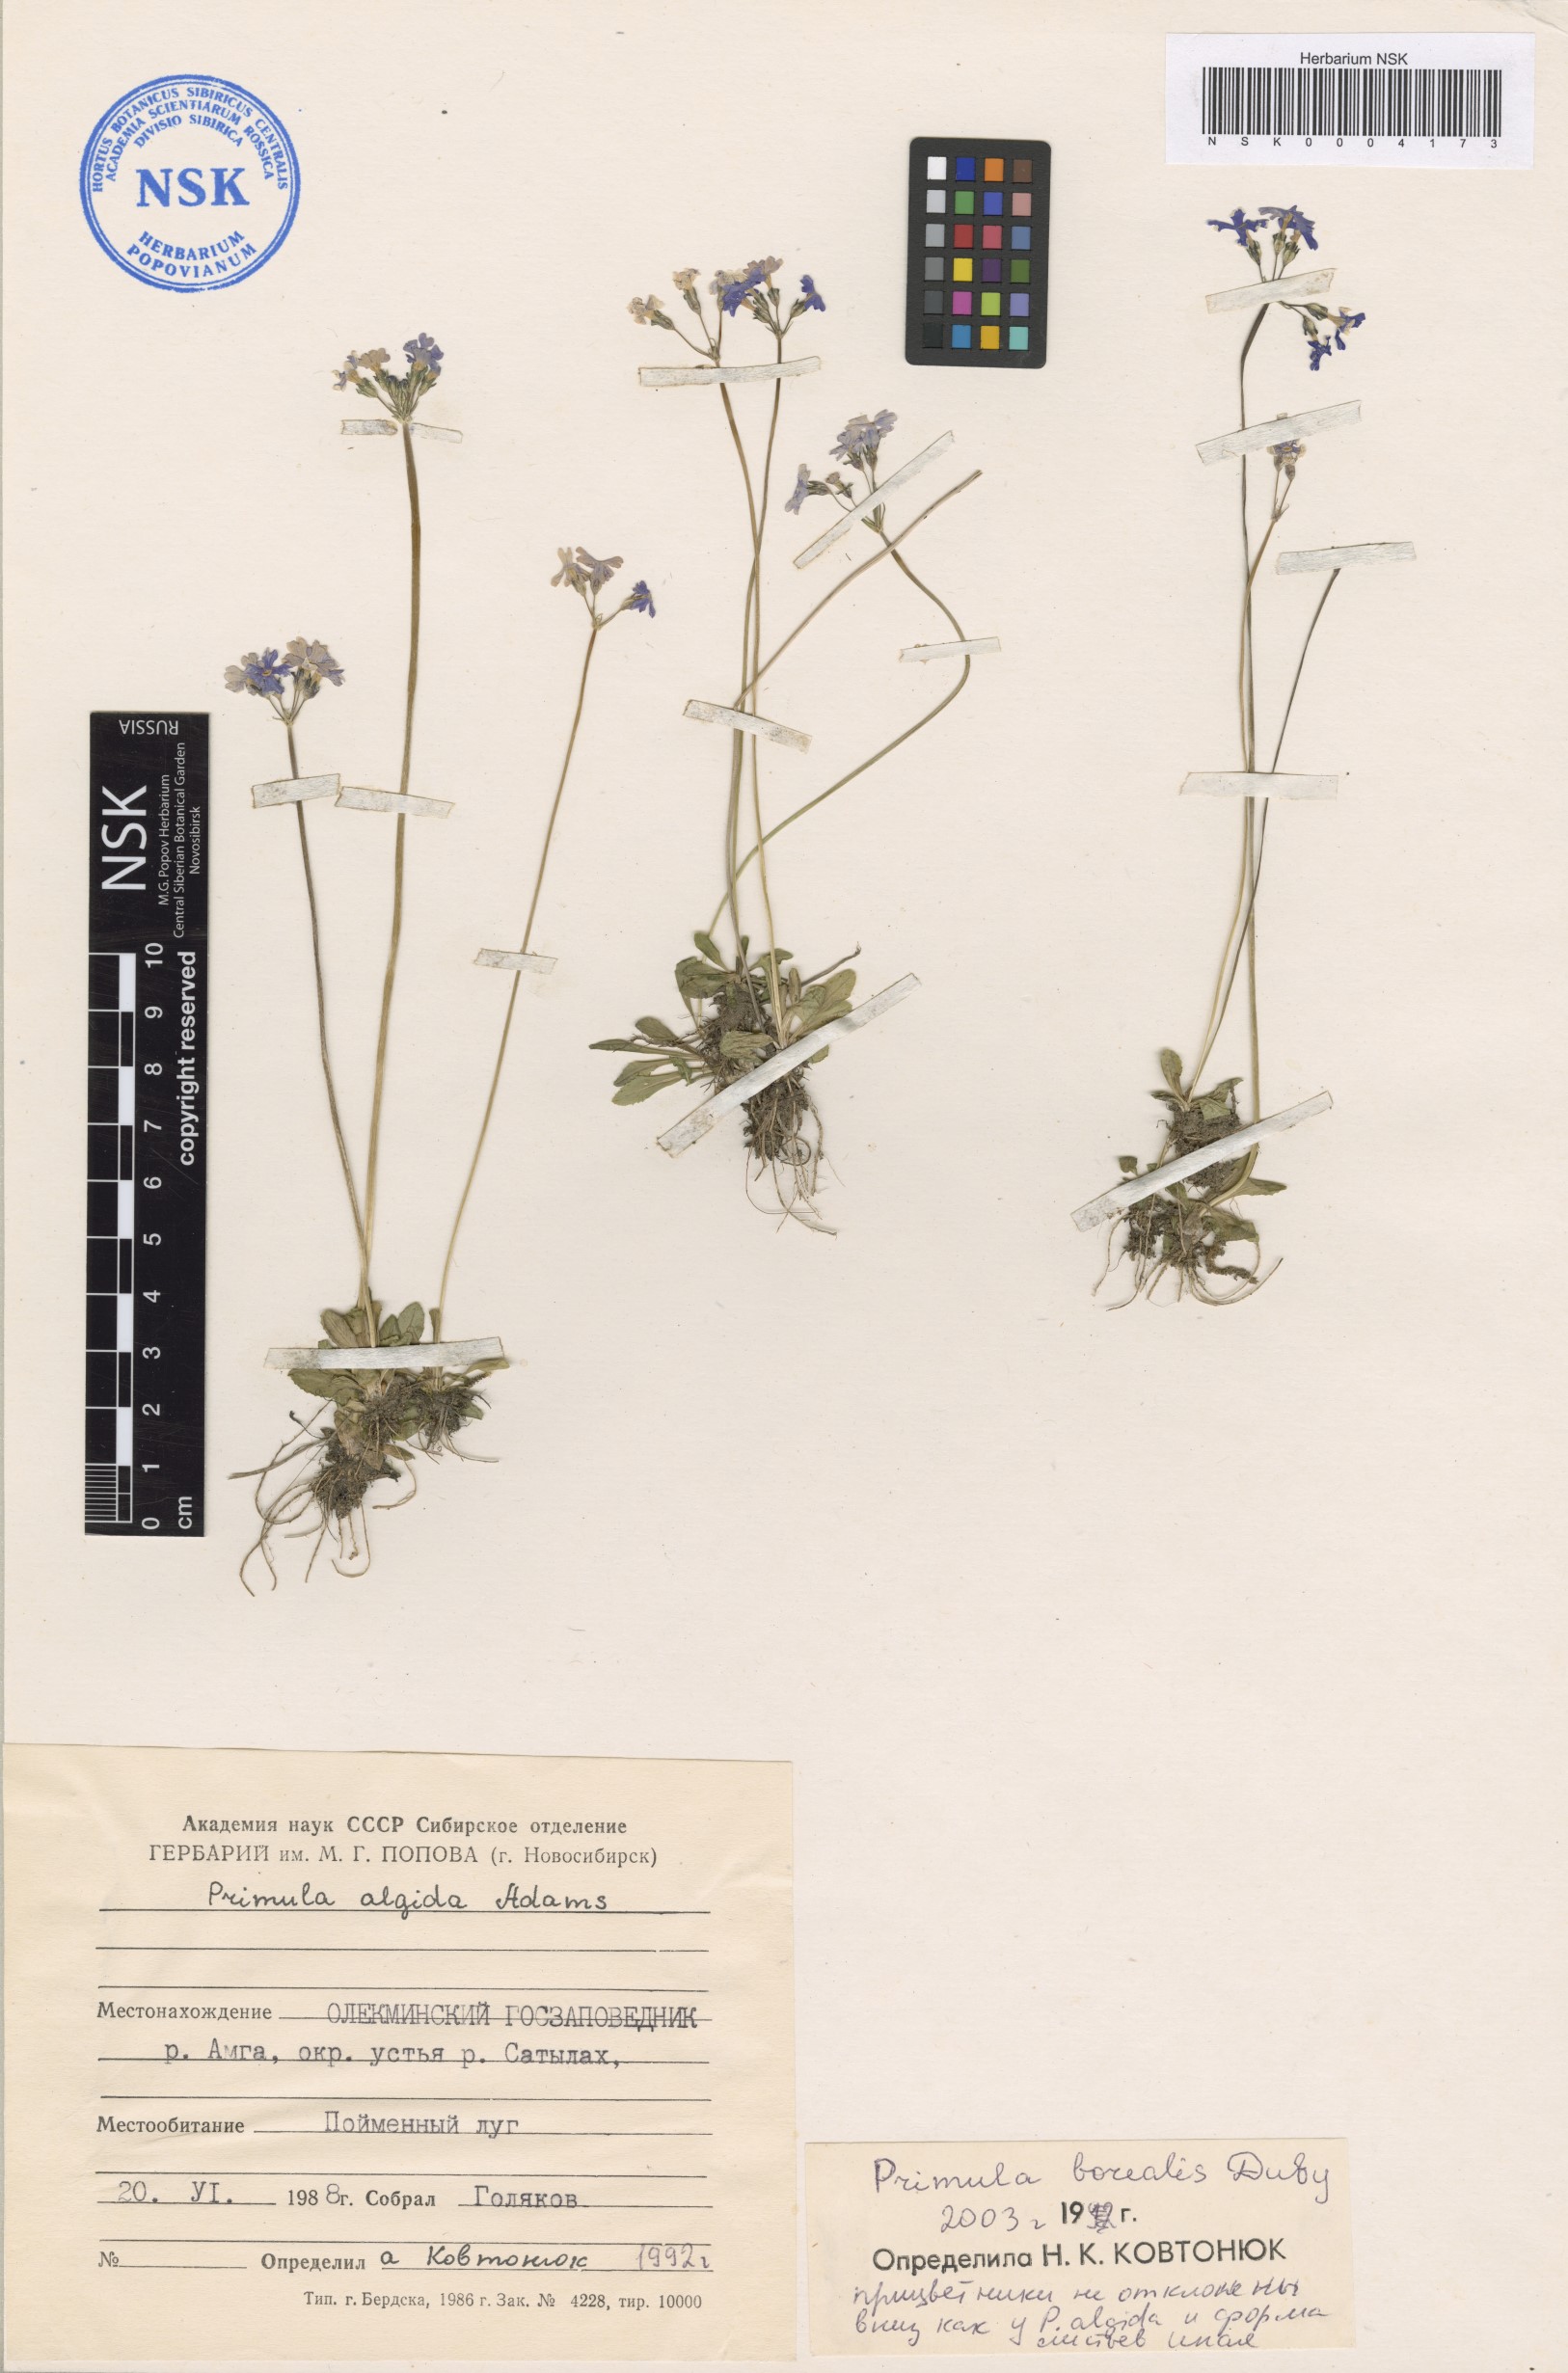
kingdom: Plantae
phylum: Tracheophyta
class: Magnoliopsida
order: Ericales
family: Primulaceae
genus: Primula
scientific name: Primula borealis
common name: Northern primrose
